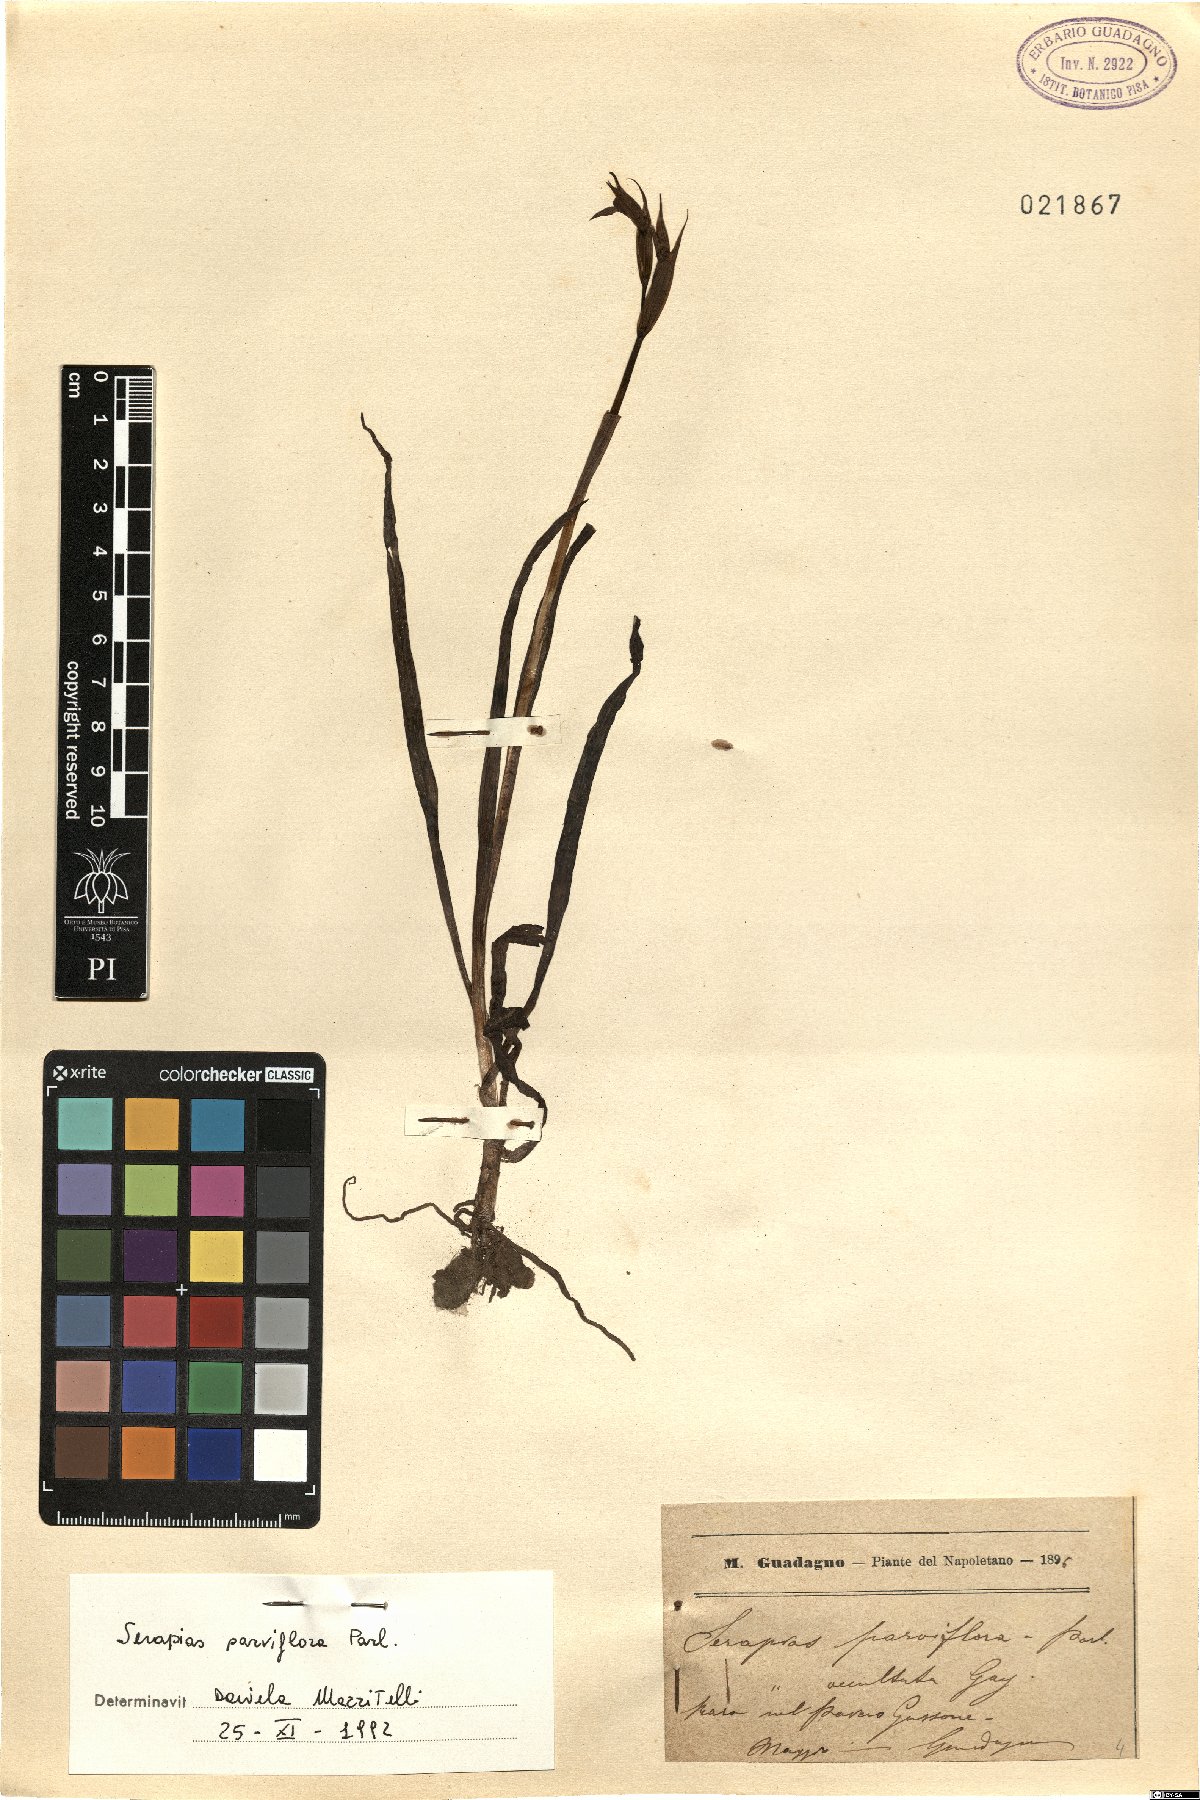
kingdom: Plantae
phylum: Tracheophyta
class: Liliopsida
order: Asparagales
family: Orchidaceae
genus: Serapias
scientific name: Serapias parviflora
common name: Small-flowered tongue-orchid
